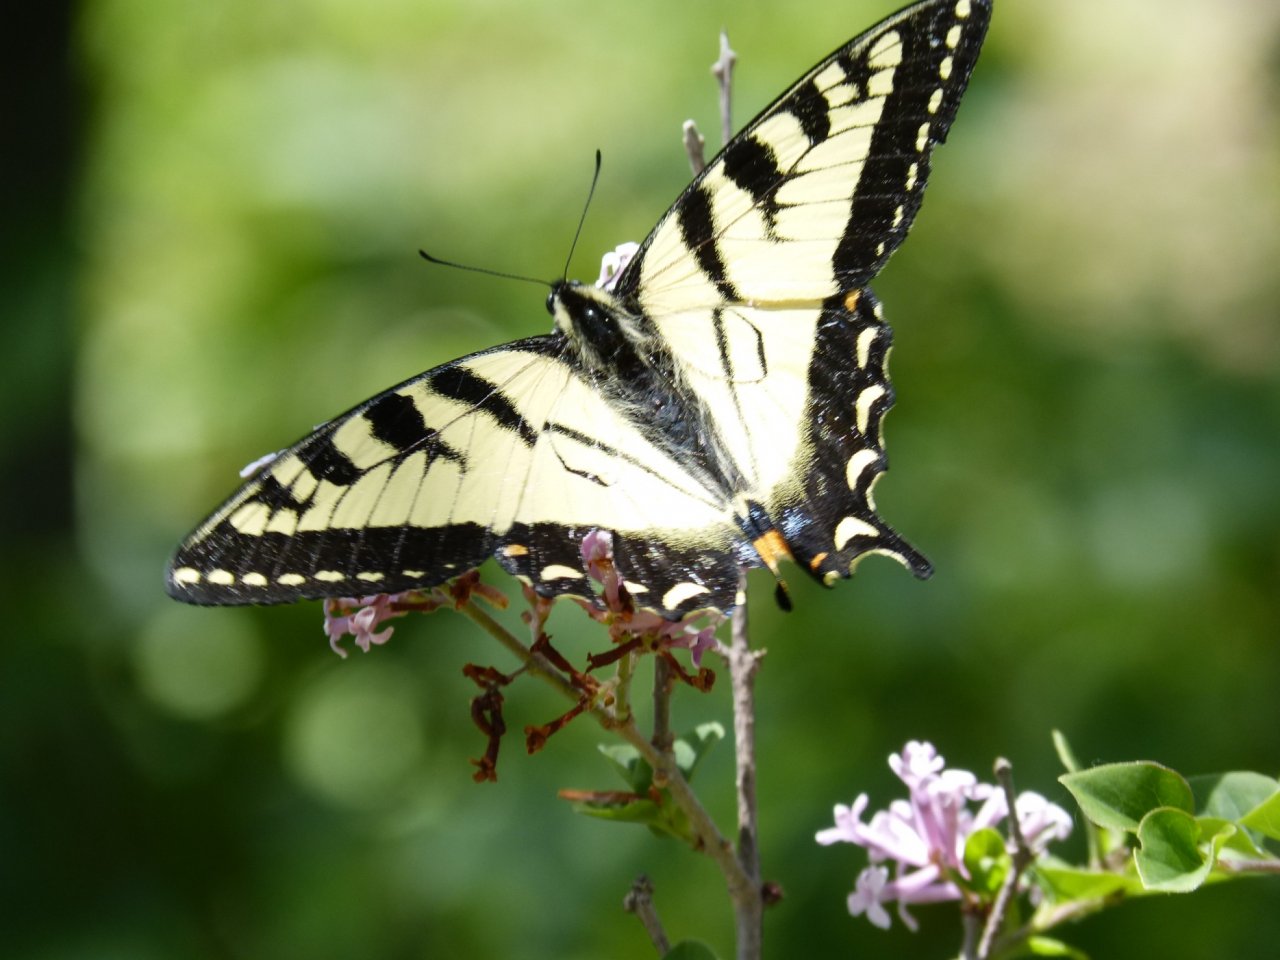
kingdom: Animalia
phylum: Arthropoda
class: Insecta
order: Lepidoptera
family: Papilionidae
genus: Pterourus
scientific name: Pterourus canadensis
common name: Canadian Tiger Swallowtail
